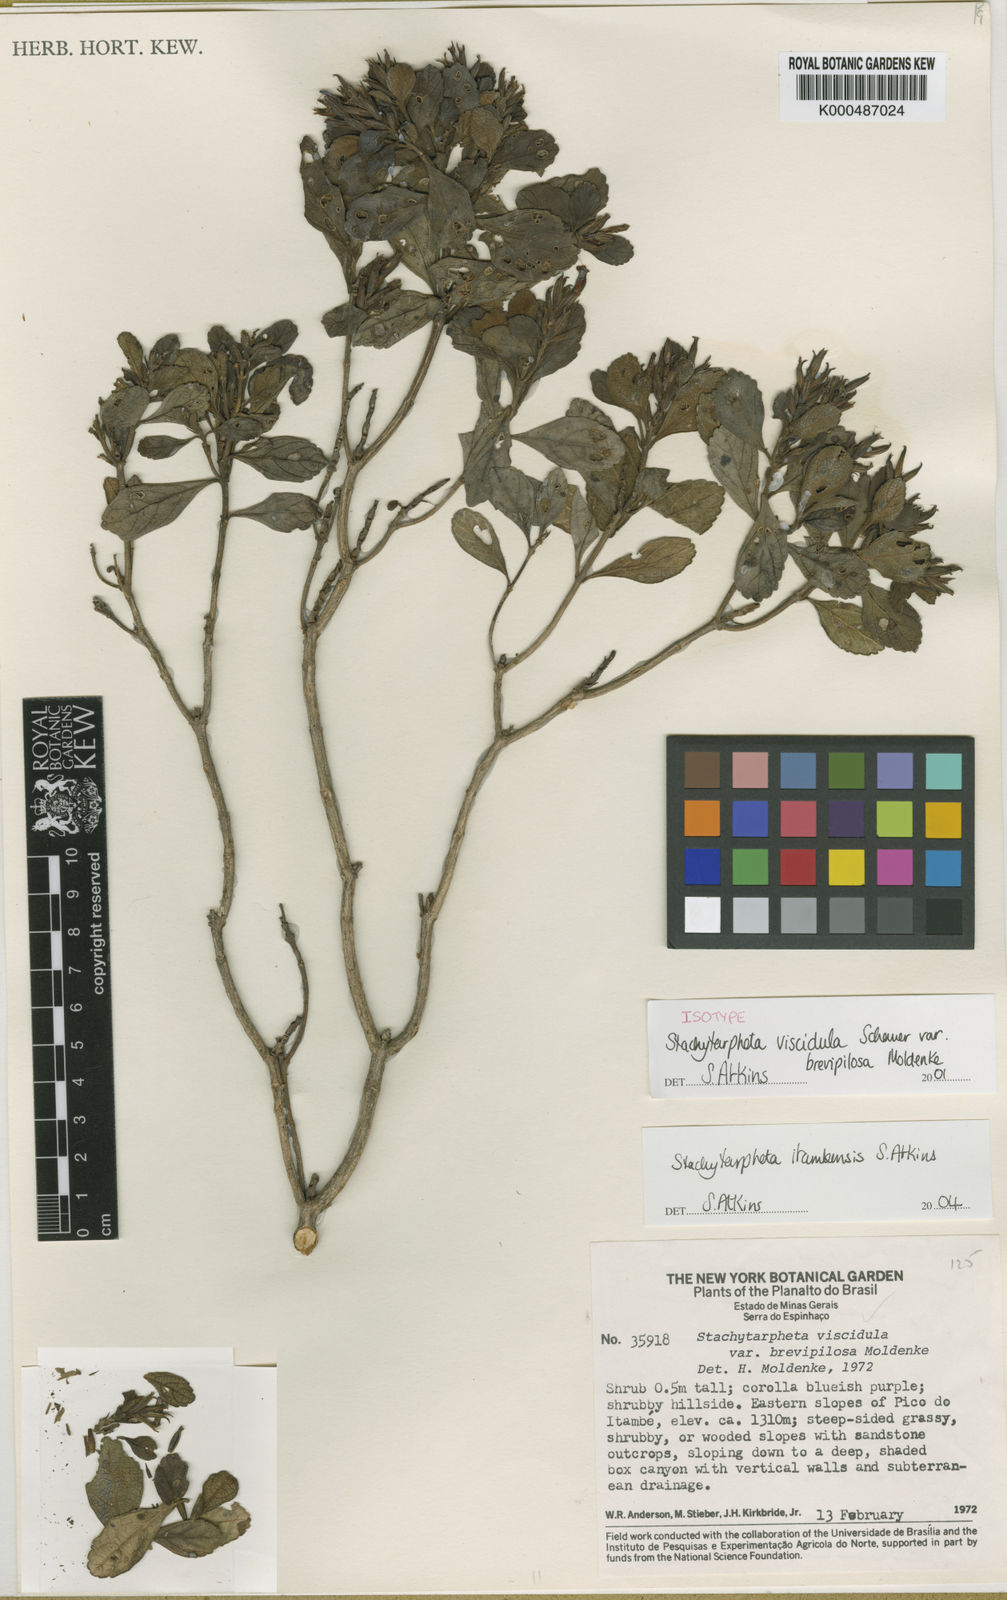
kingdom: Plantae
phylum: Tracheophyta
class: Magnoliopsida
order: Lamiales
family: Verbenaceae
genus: Stachytarpheta
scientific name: Stachytarpheta itambensis
